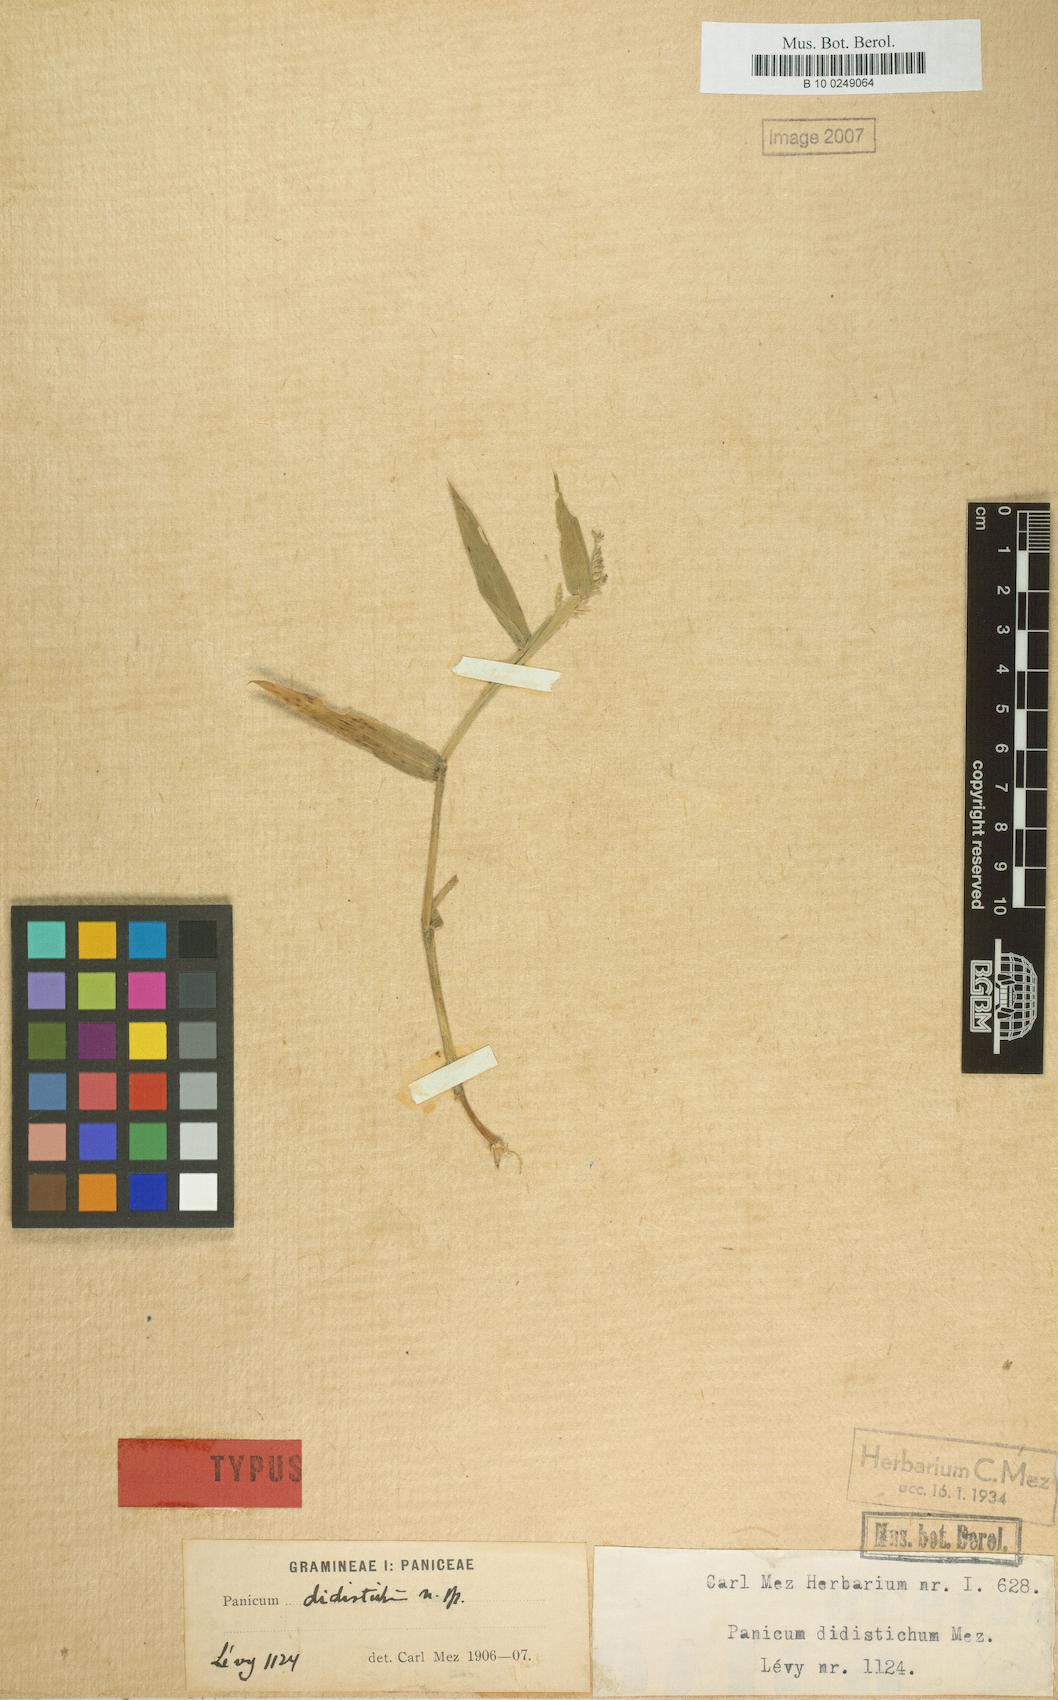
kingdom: Plantae
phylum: Tracheophyta
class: Liliopsida
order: Poales
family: Poaceae
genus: Urochloa
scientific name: Urochloa mollis
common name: Grass
